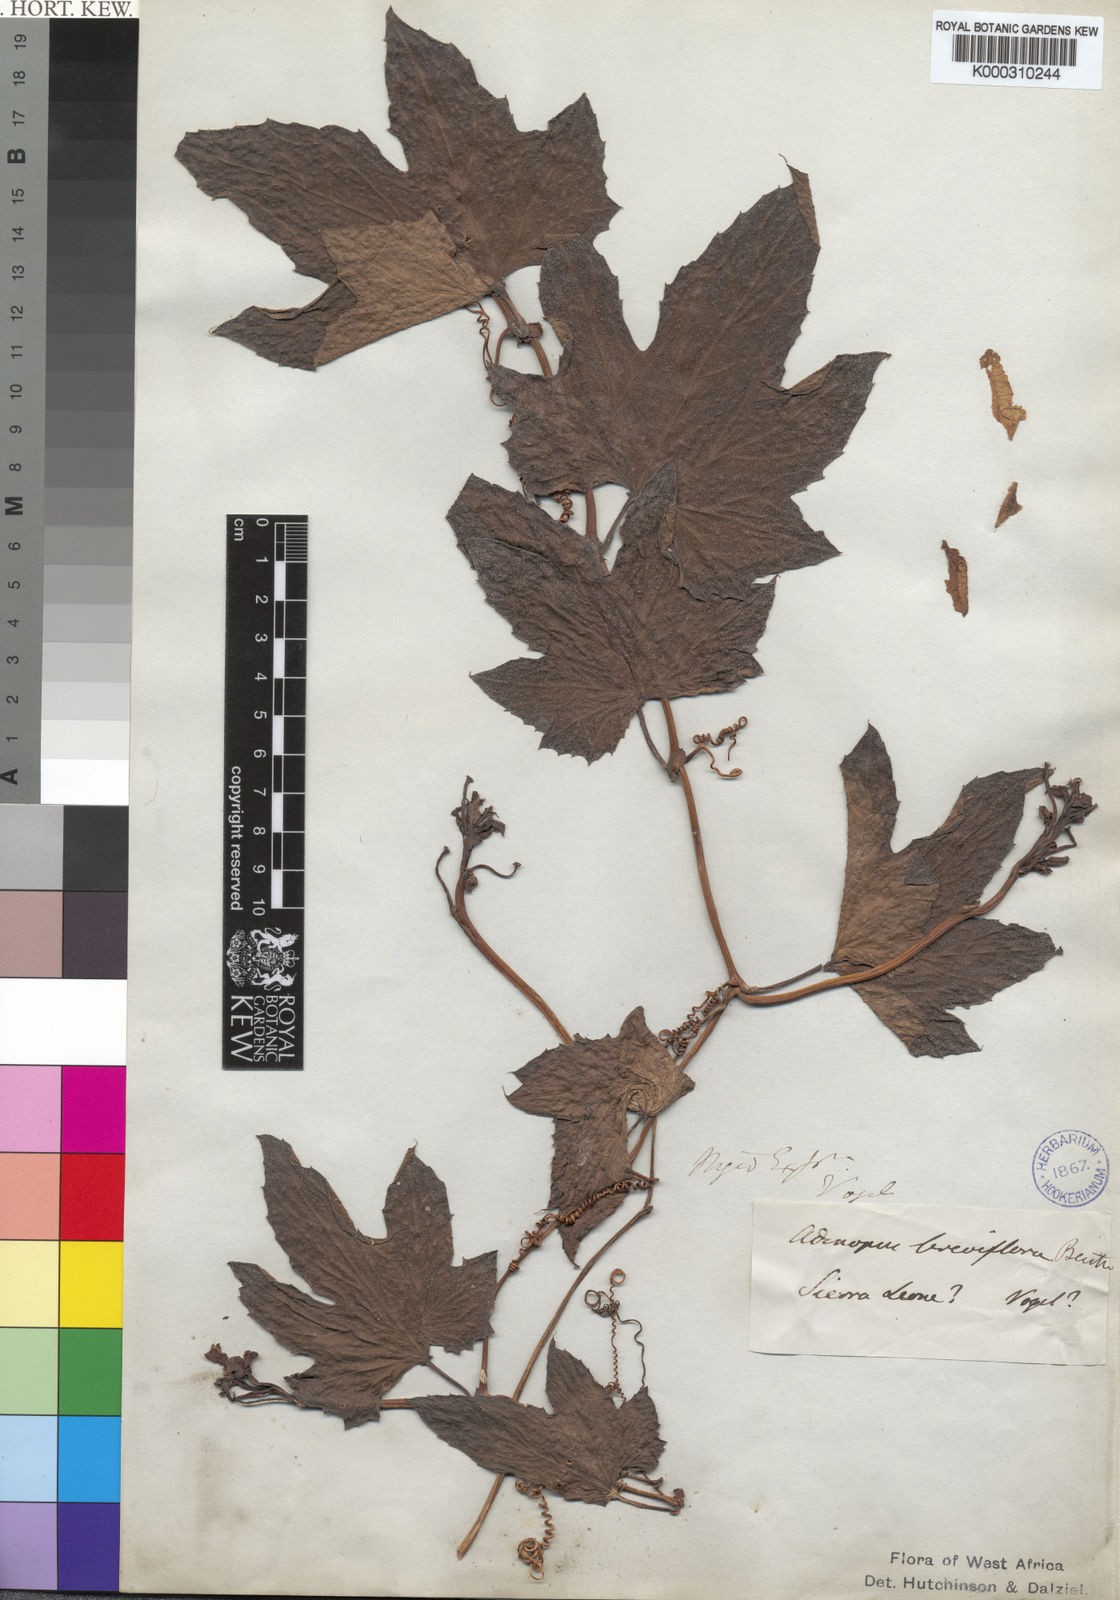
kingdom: Plantae
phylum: Tracheophyta
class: Magnoliopsida
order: Cucurbitales
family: Cucurbitaceae
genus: Lagenaria
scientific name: Lagenaria breviflora
